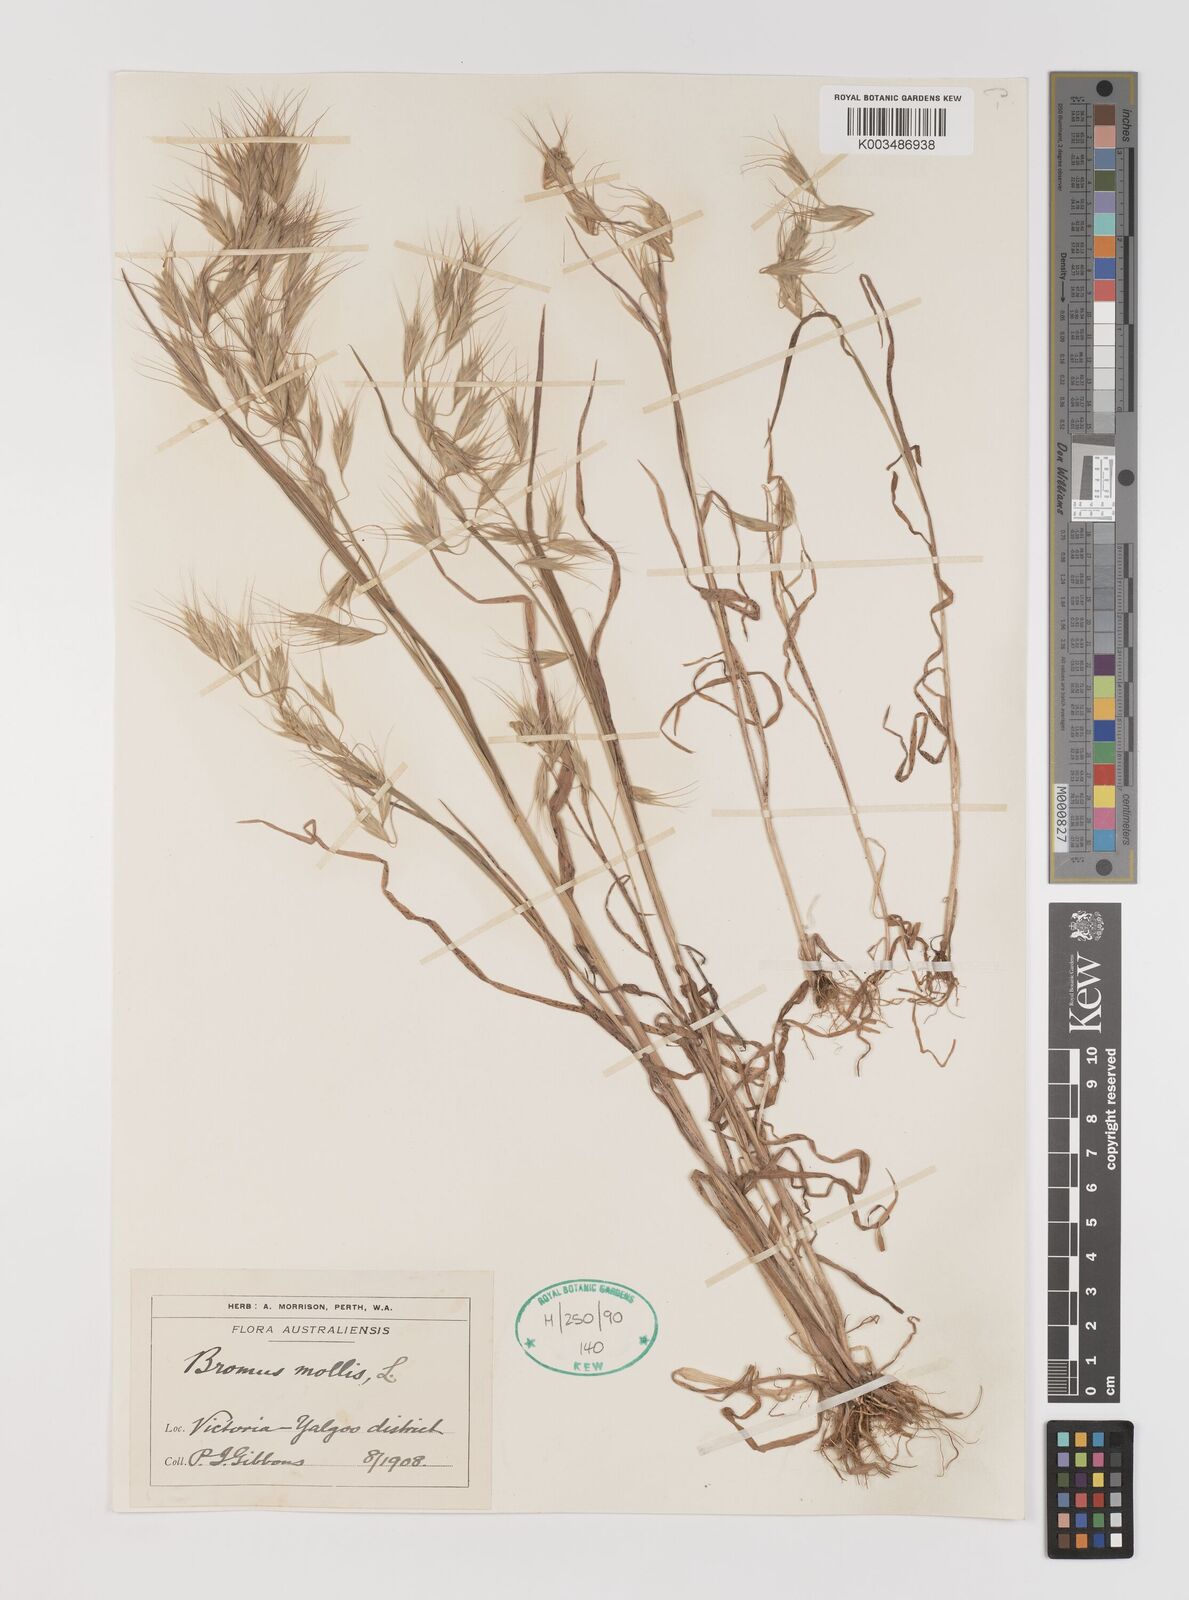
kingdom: Plantae
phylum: Tracheophyta
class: Liliopsida
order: Poales
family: Poaceae
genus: Bromus
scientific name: Bromus arenarius
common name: Australian brome
